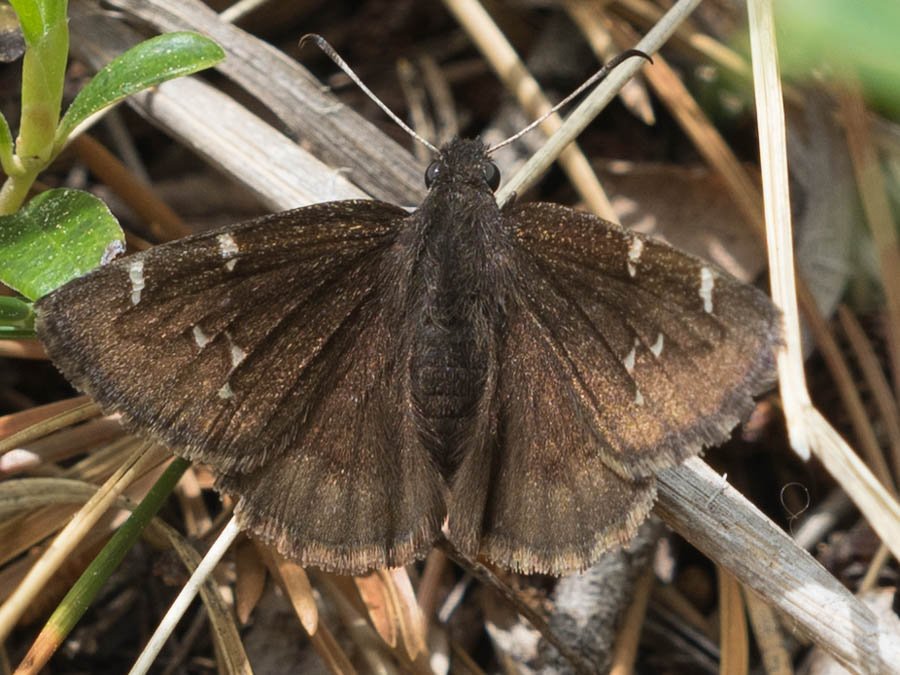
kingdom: Animalia
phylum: Arthropoda
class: Insecta
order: Lepidoptera
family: Hesperiidae
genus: Autochton
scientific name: Autochton
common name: Northern Cloudywing
